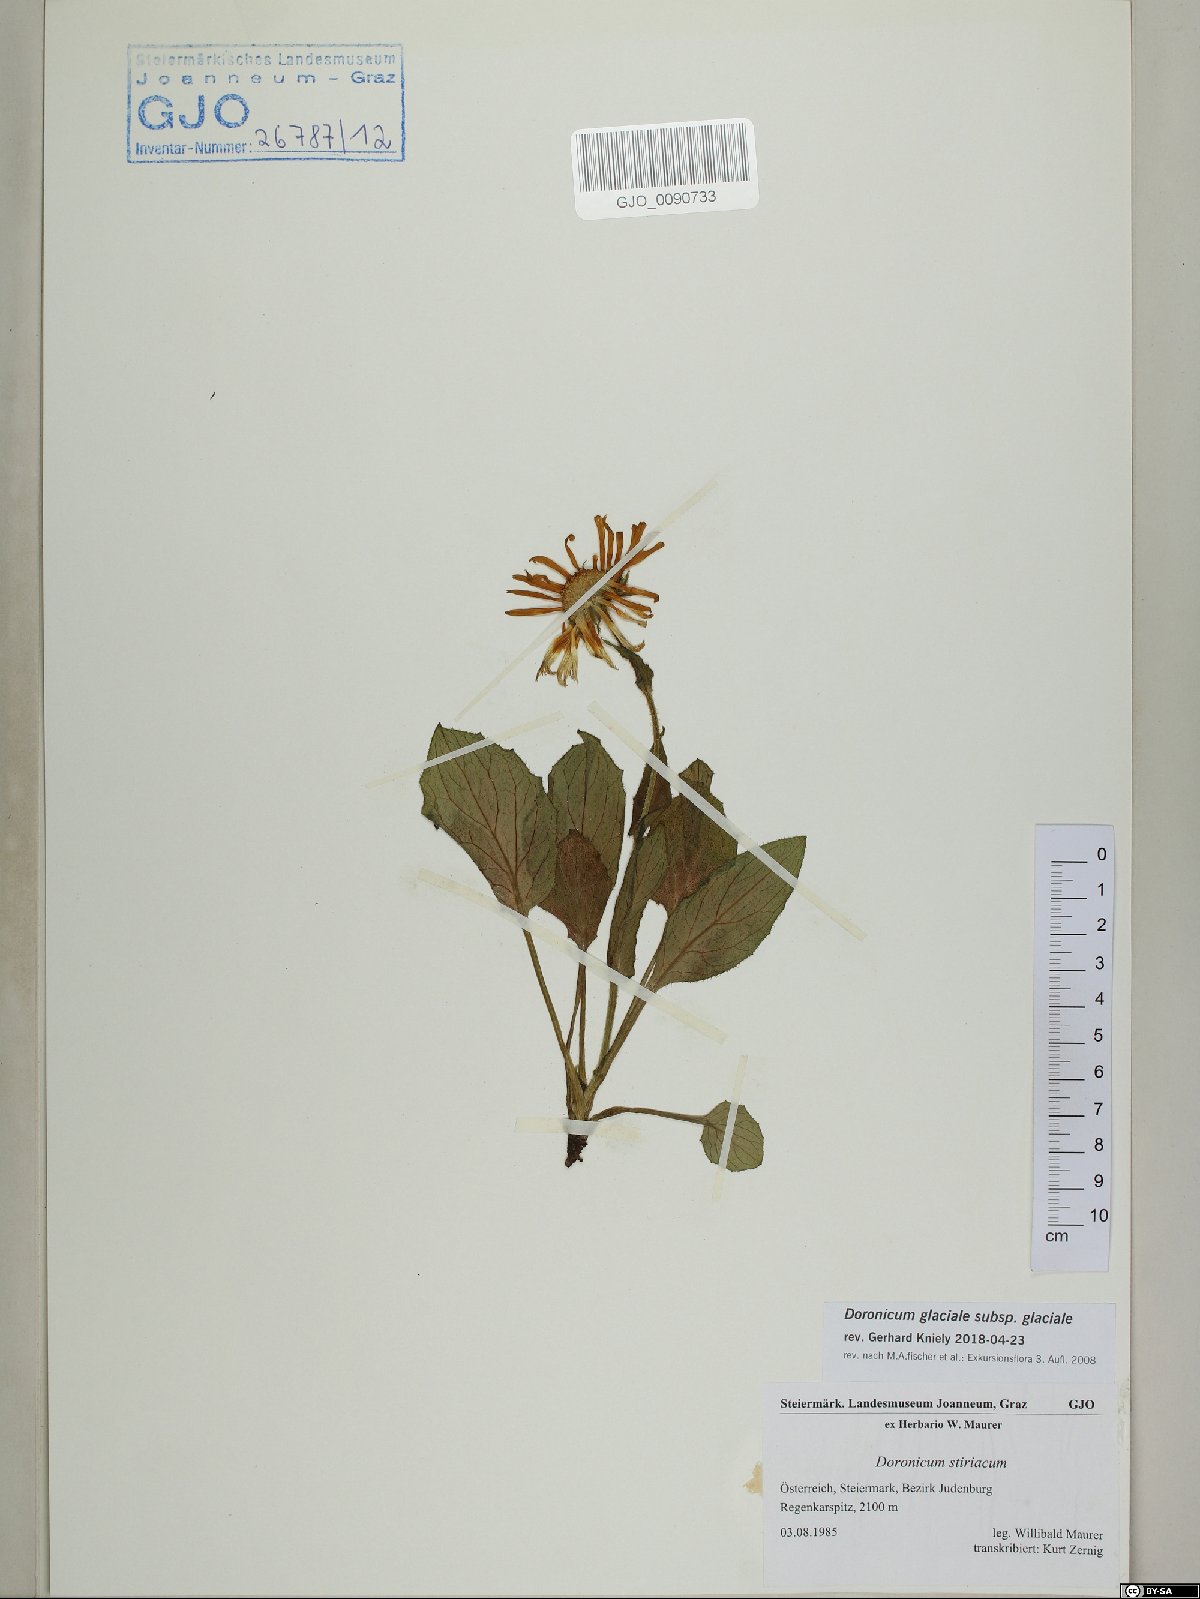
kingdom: Plantae
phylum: Tracheophyta
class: Magnoliopsida
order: Asterales
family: Asteraceae
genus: Doronicum
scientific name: Doronicum glaciale
